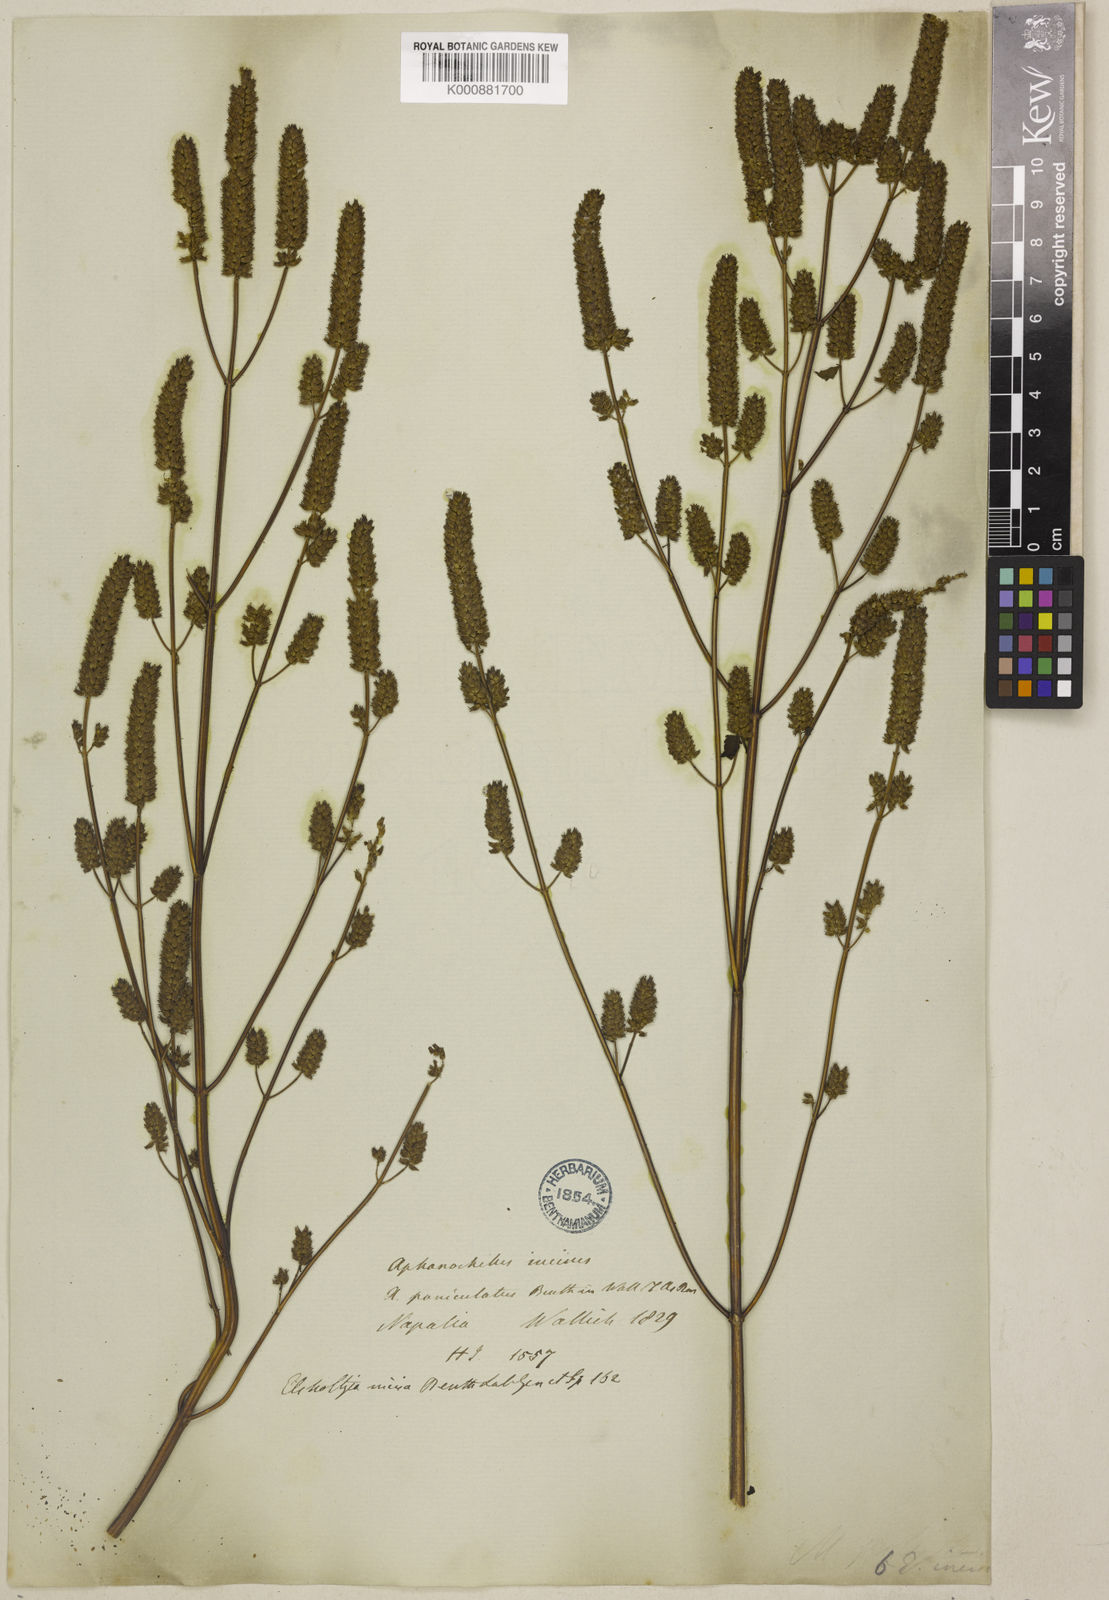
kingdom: Plantae
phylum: Tracheophyta
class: Magnoliopsida
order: Lamiales
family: Lamiaceae
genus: Elsholtzia
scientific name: Elsholtzia stachyodes
